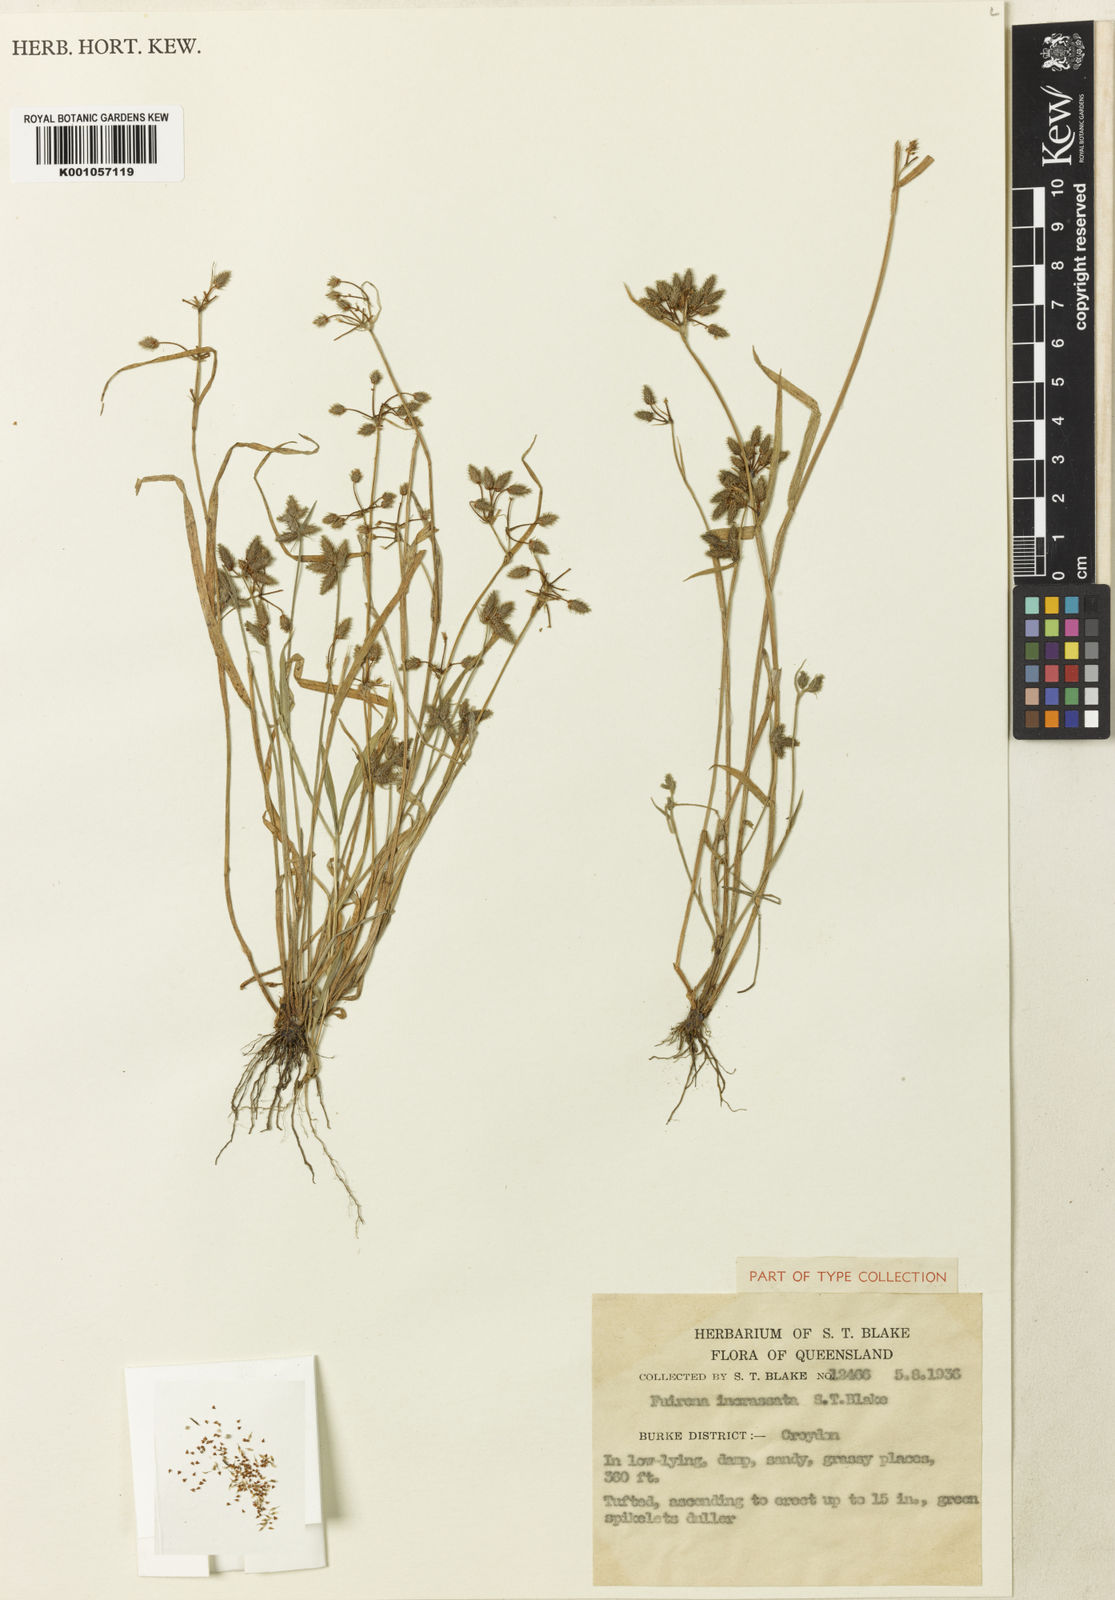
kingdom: Plantae
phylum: Tracheophyta
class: Liliopsida
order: Poales
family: Cyperaceae
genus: Fuirena
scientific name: Fuirena incrassata
